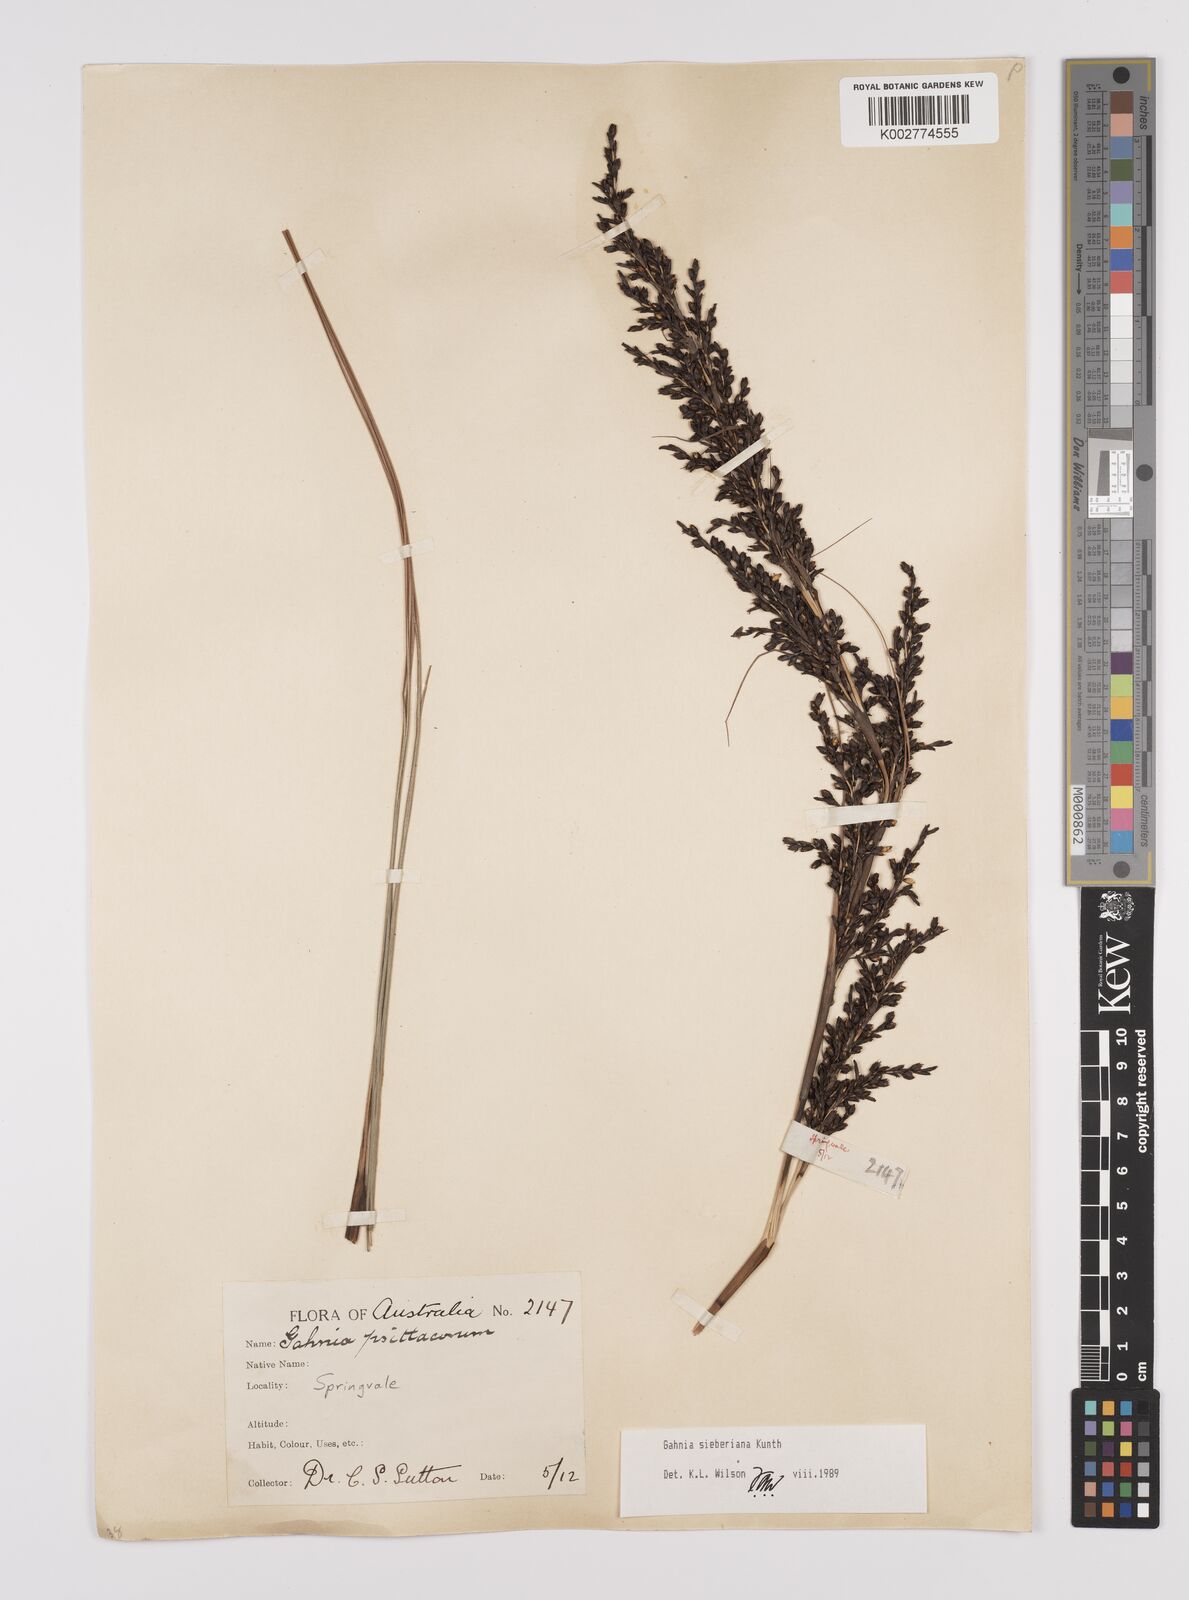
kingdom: Plantae
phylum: Tracheophyta
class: Liliopsida
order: Poales
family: Cyperaceae
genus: Gahnia
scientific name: Gahnia sieberiana
